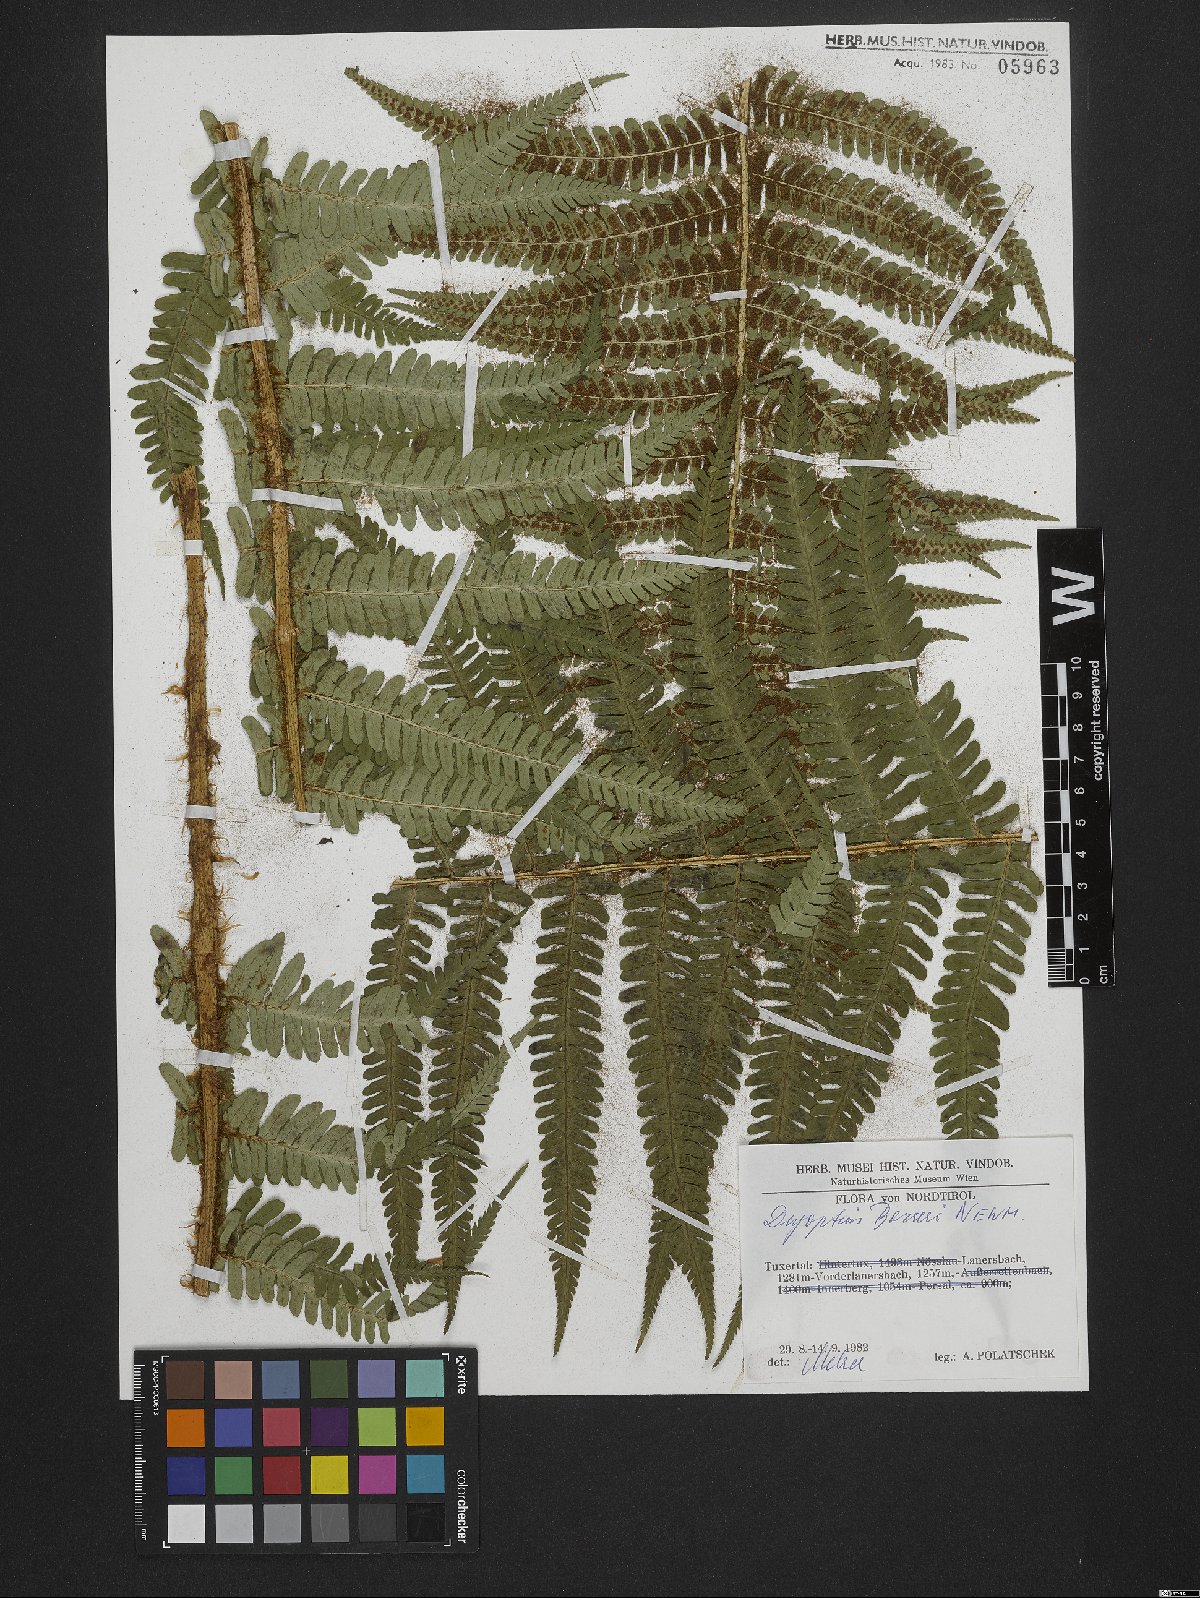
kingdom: Plantae
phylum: Tracheophyta
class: Polypodiopsida
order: Polypodiales
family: Dryopteridaceae
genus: Dryopteris
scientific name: Dryopteris borreri
